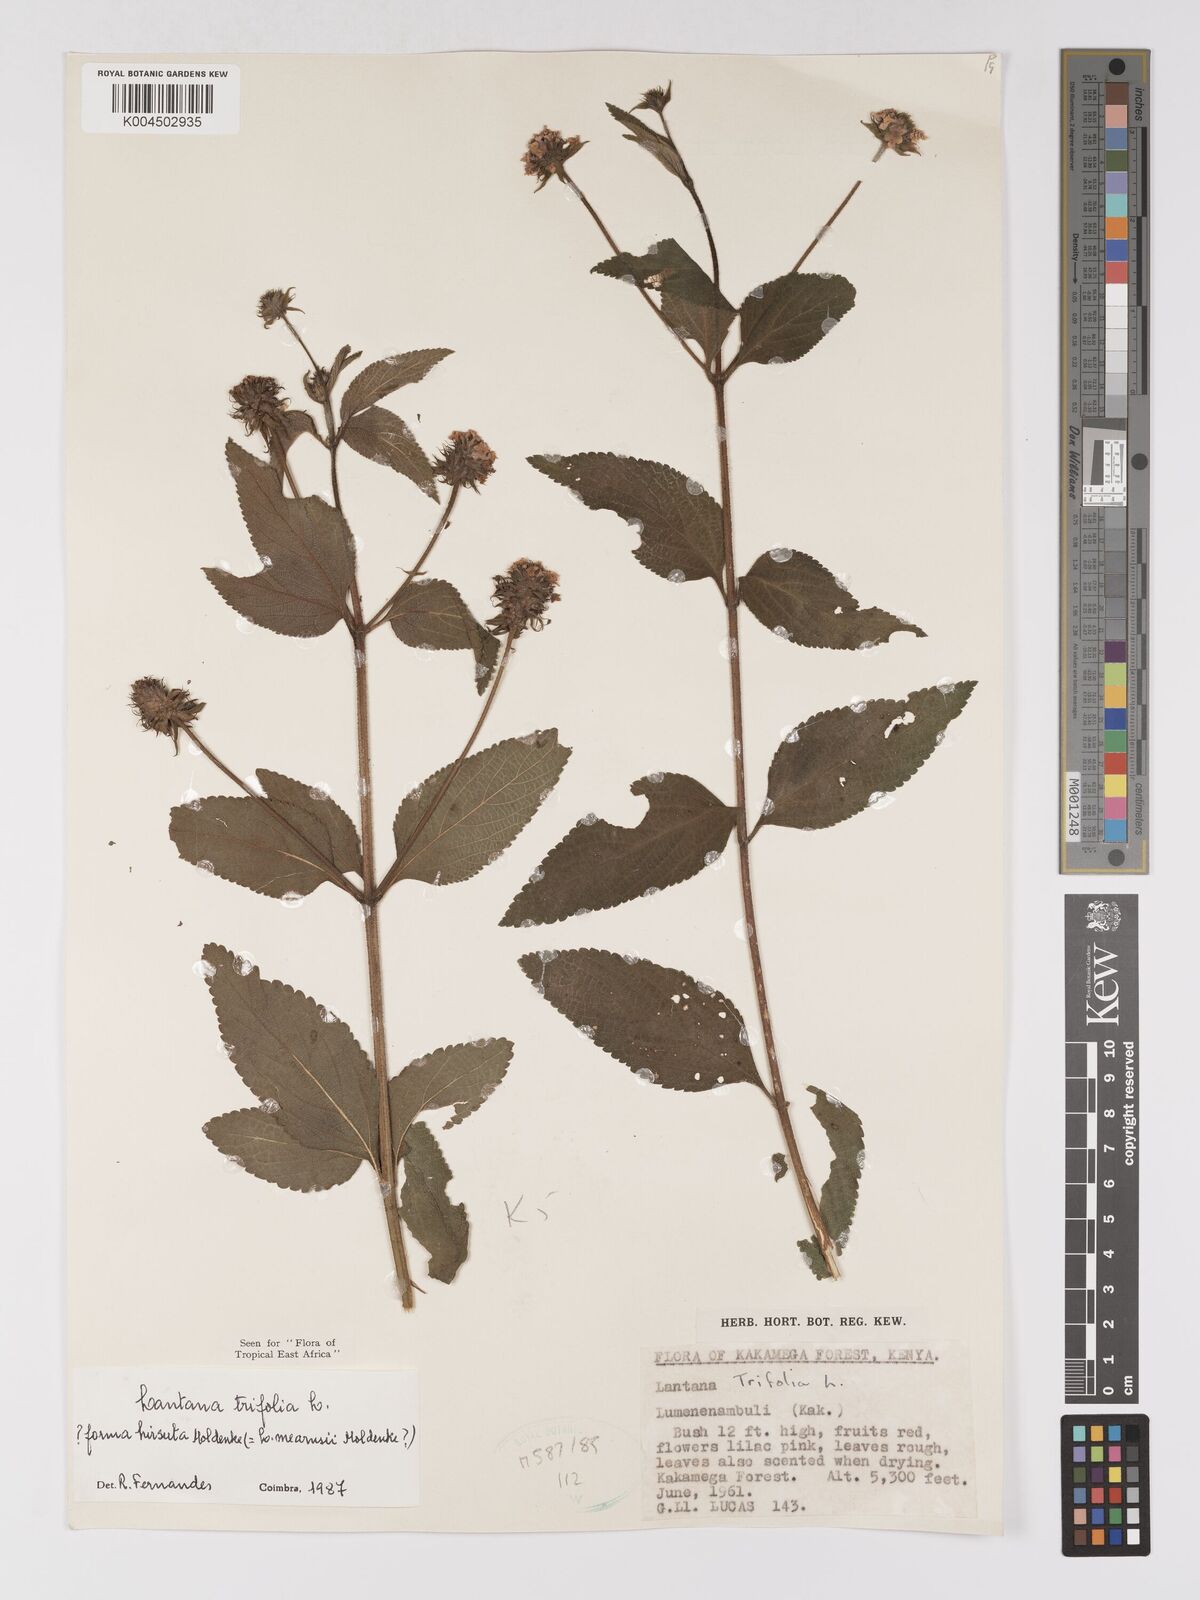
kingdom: Plantae
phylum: Tracheophyta
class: Magnoliopsida
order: Lamiales
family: Verbenaceae
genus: Lantana
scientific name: Lantana trifolia
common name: Sweet-sage
